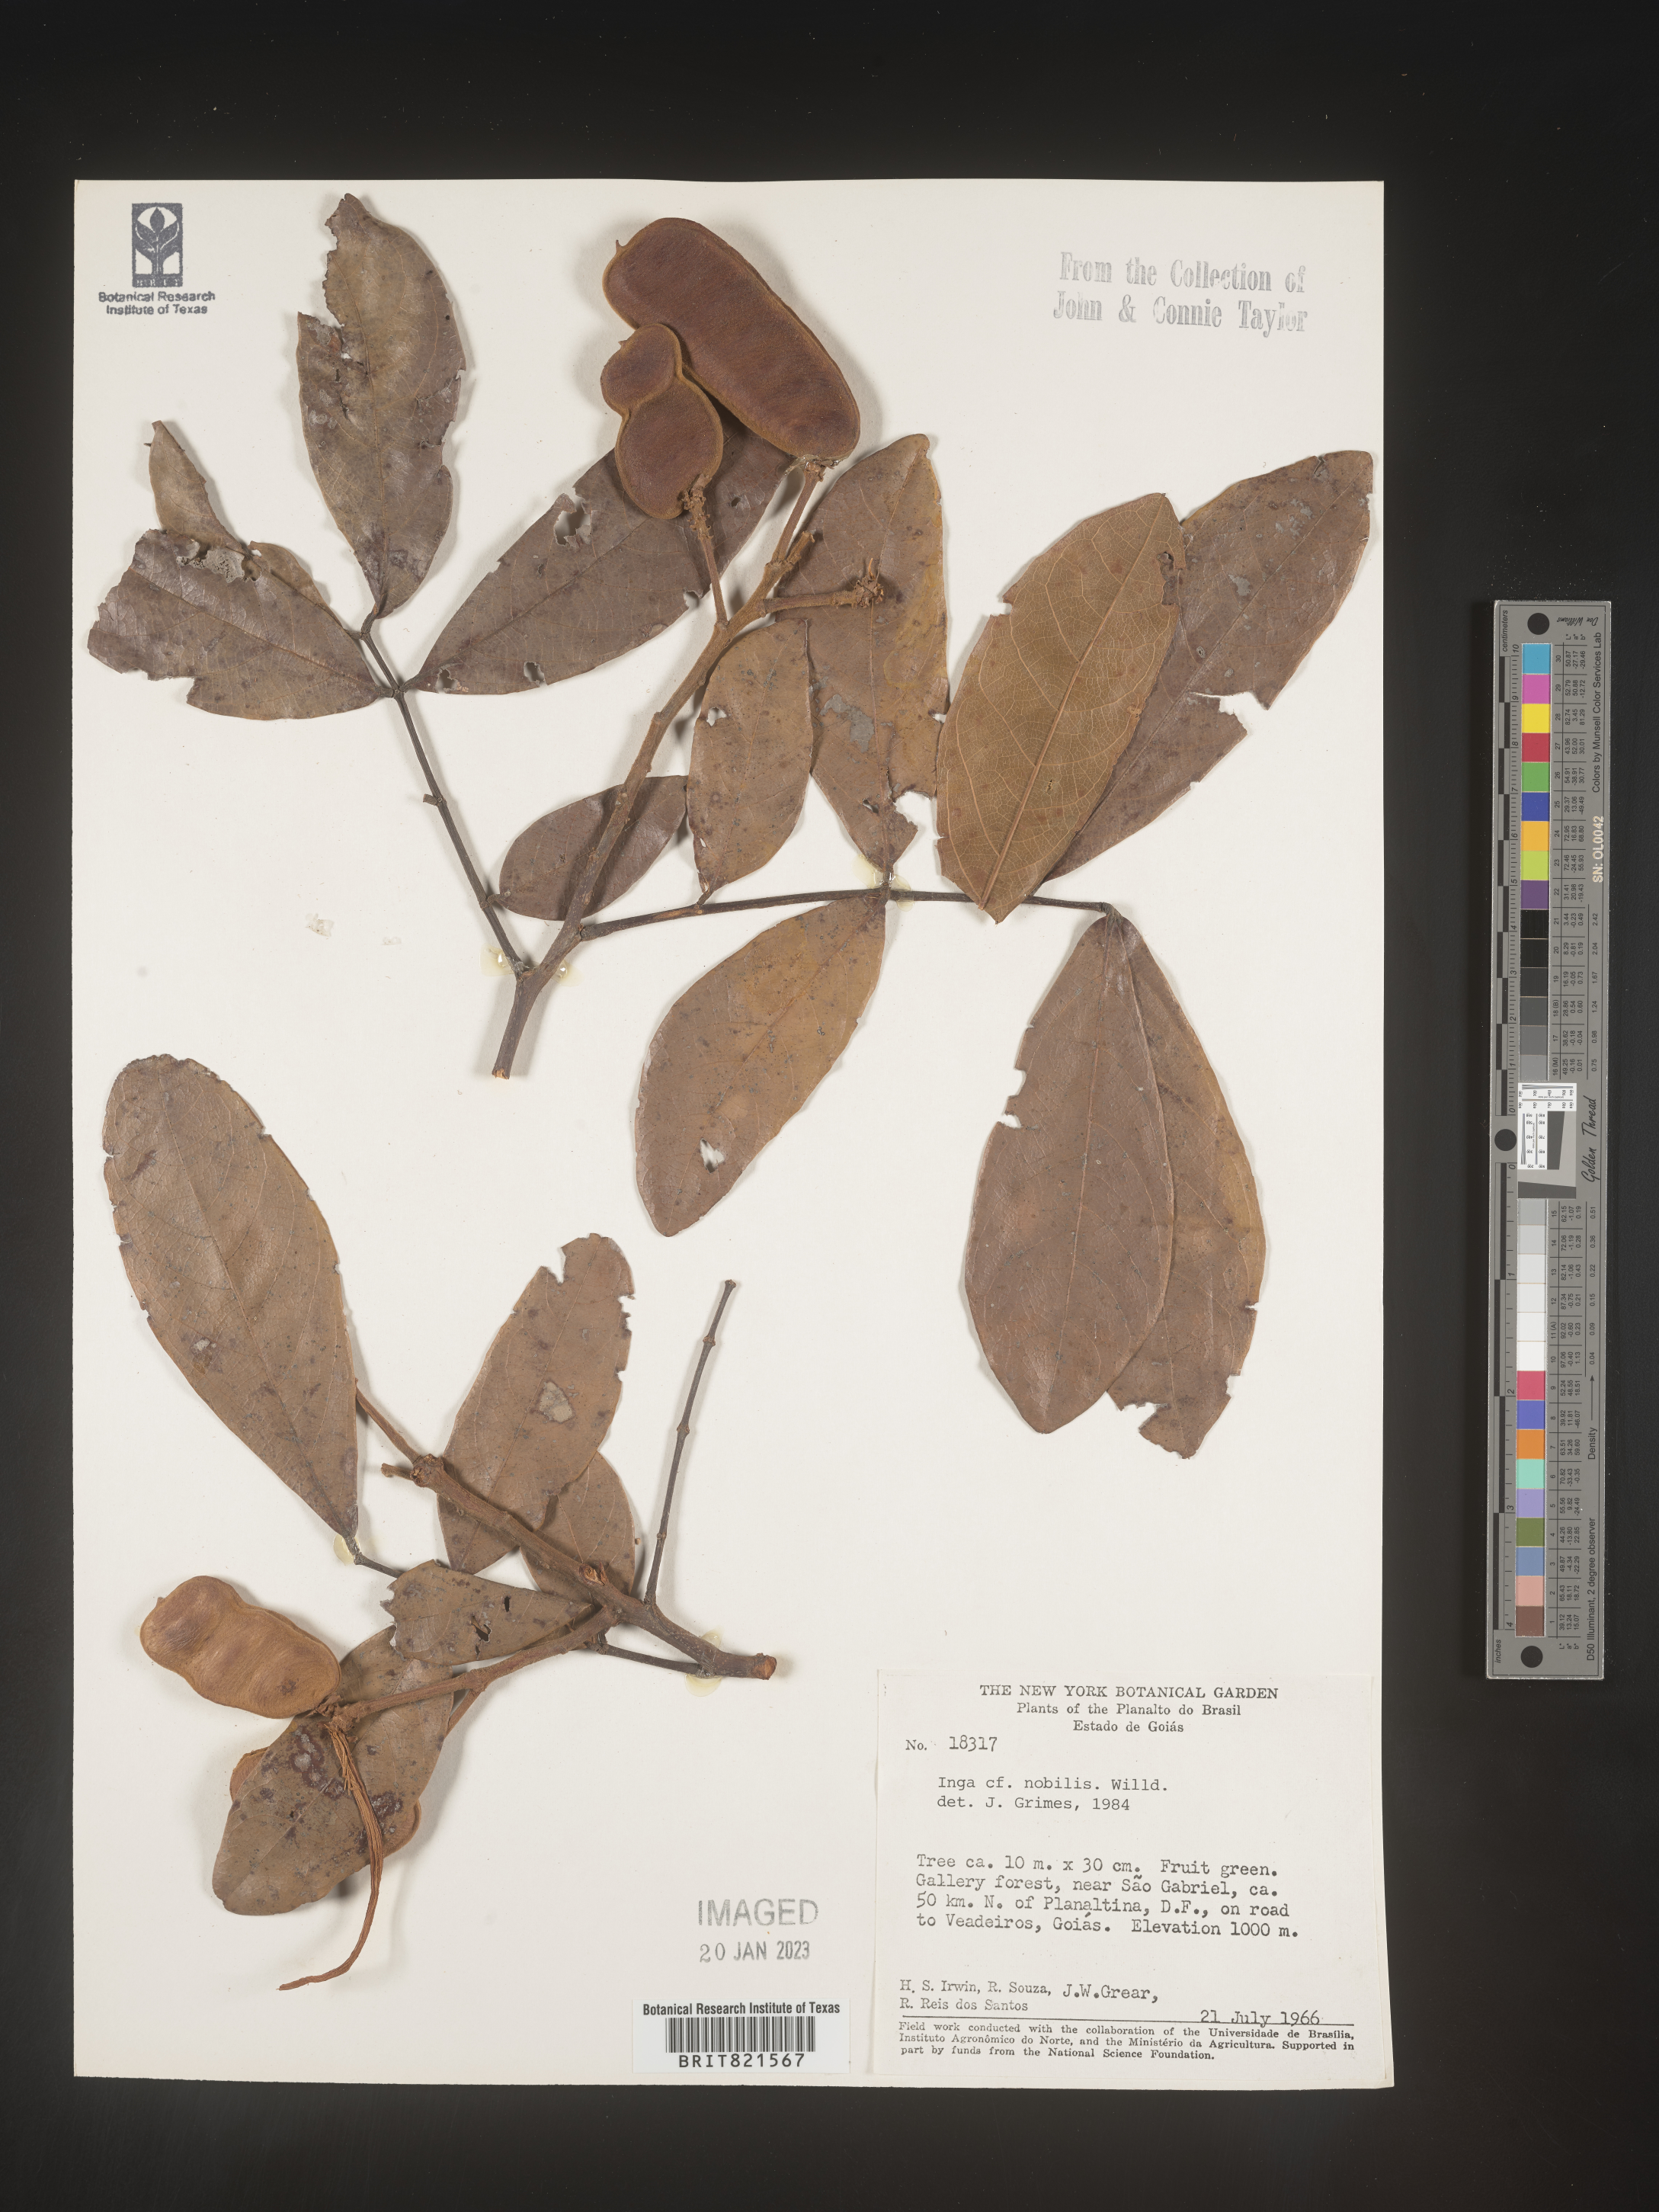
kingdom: Plantae
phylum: Tracheophyta
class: Magnoliopsida
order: Fabales
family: Fabaceae
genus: Inga
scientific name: Inga
